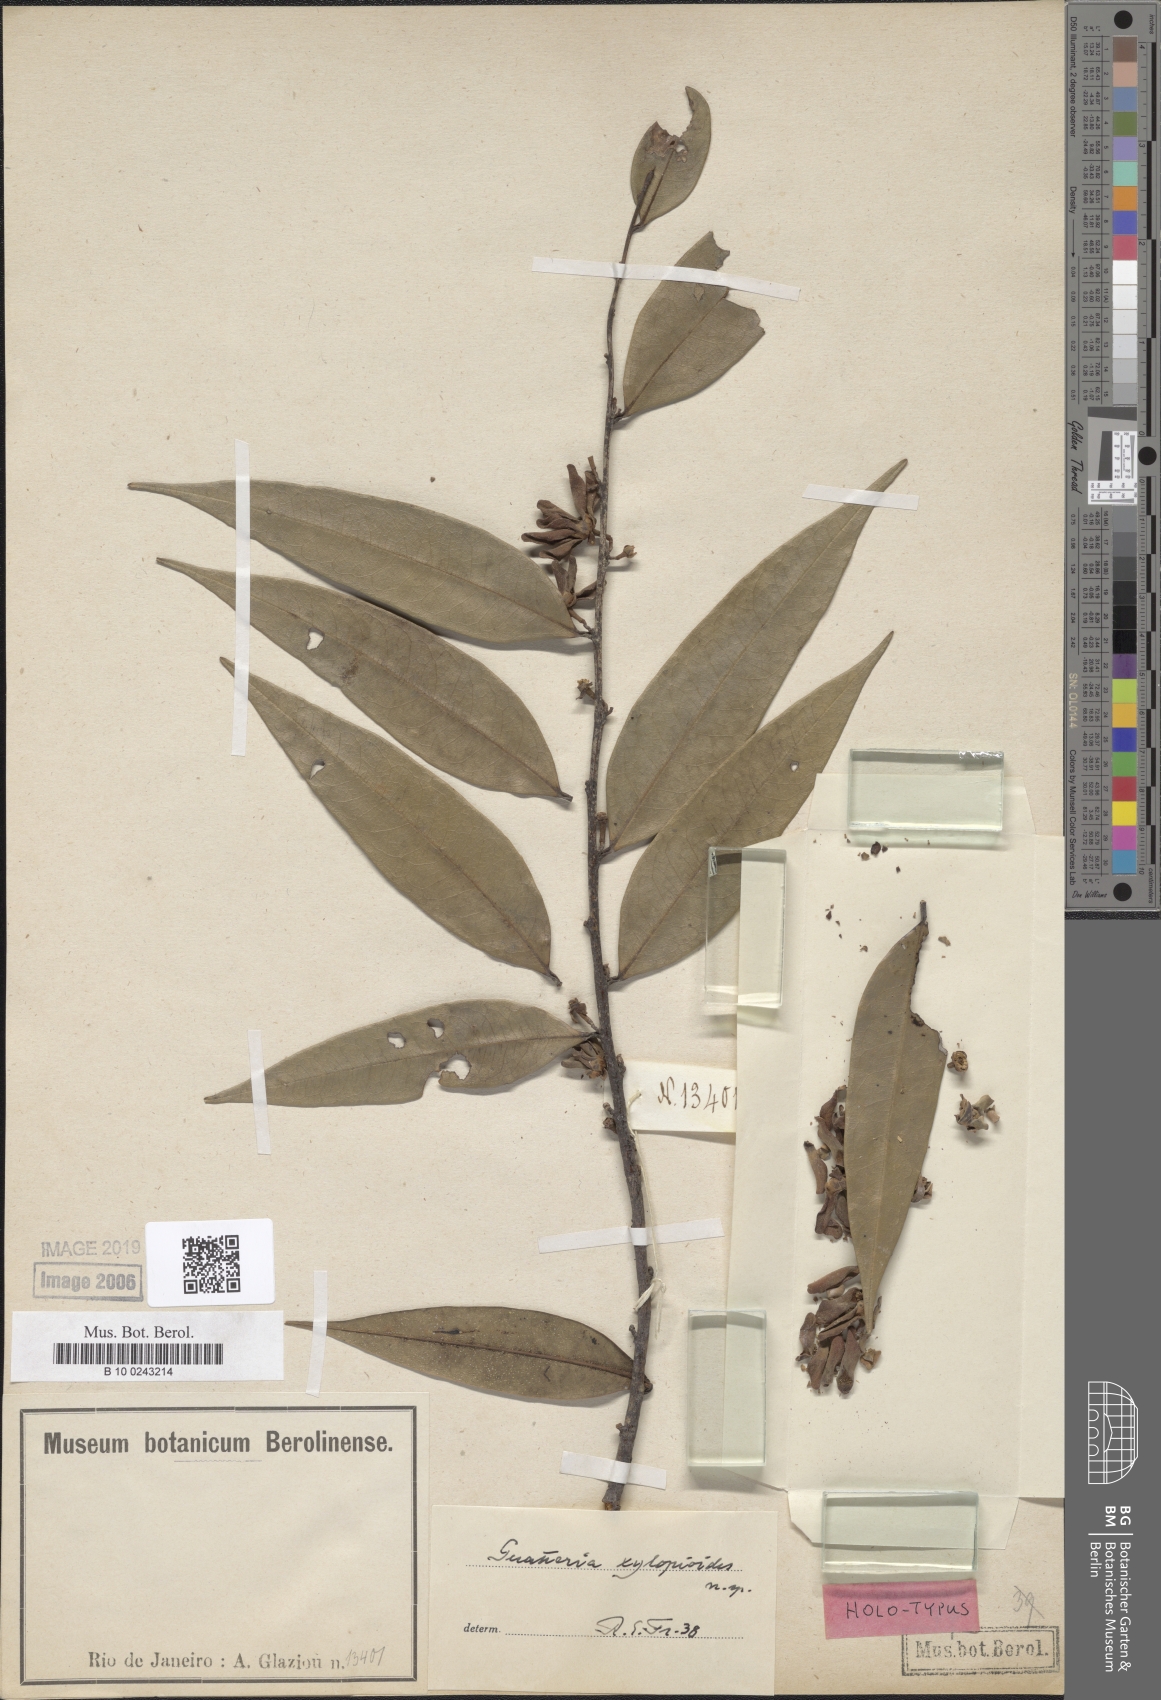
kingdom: Plantae
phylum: Tracheophyta
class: Magnoliopsida
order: Magnoliales
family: Annonaceae
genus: Guatteria
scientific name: Guatteria campestris
